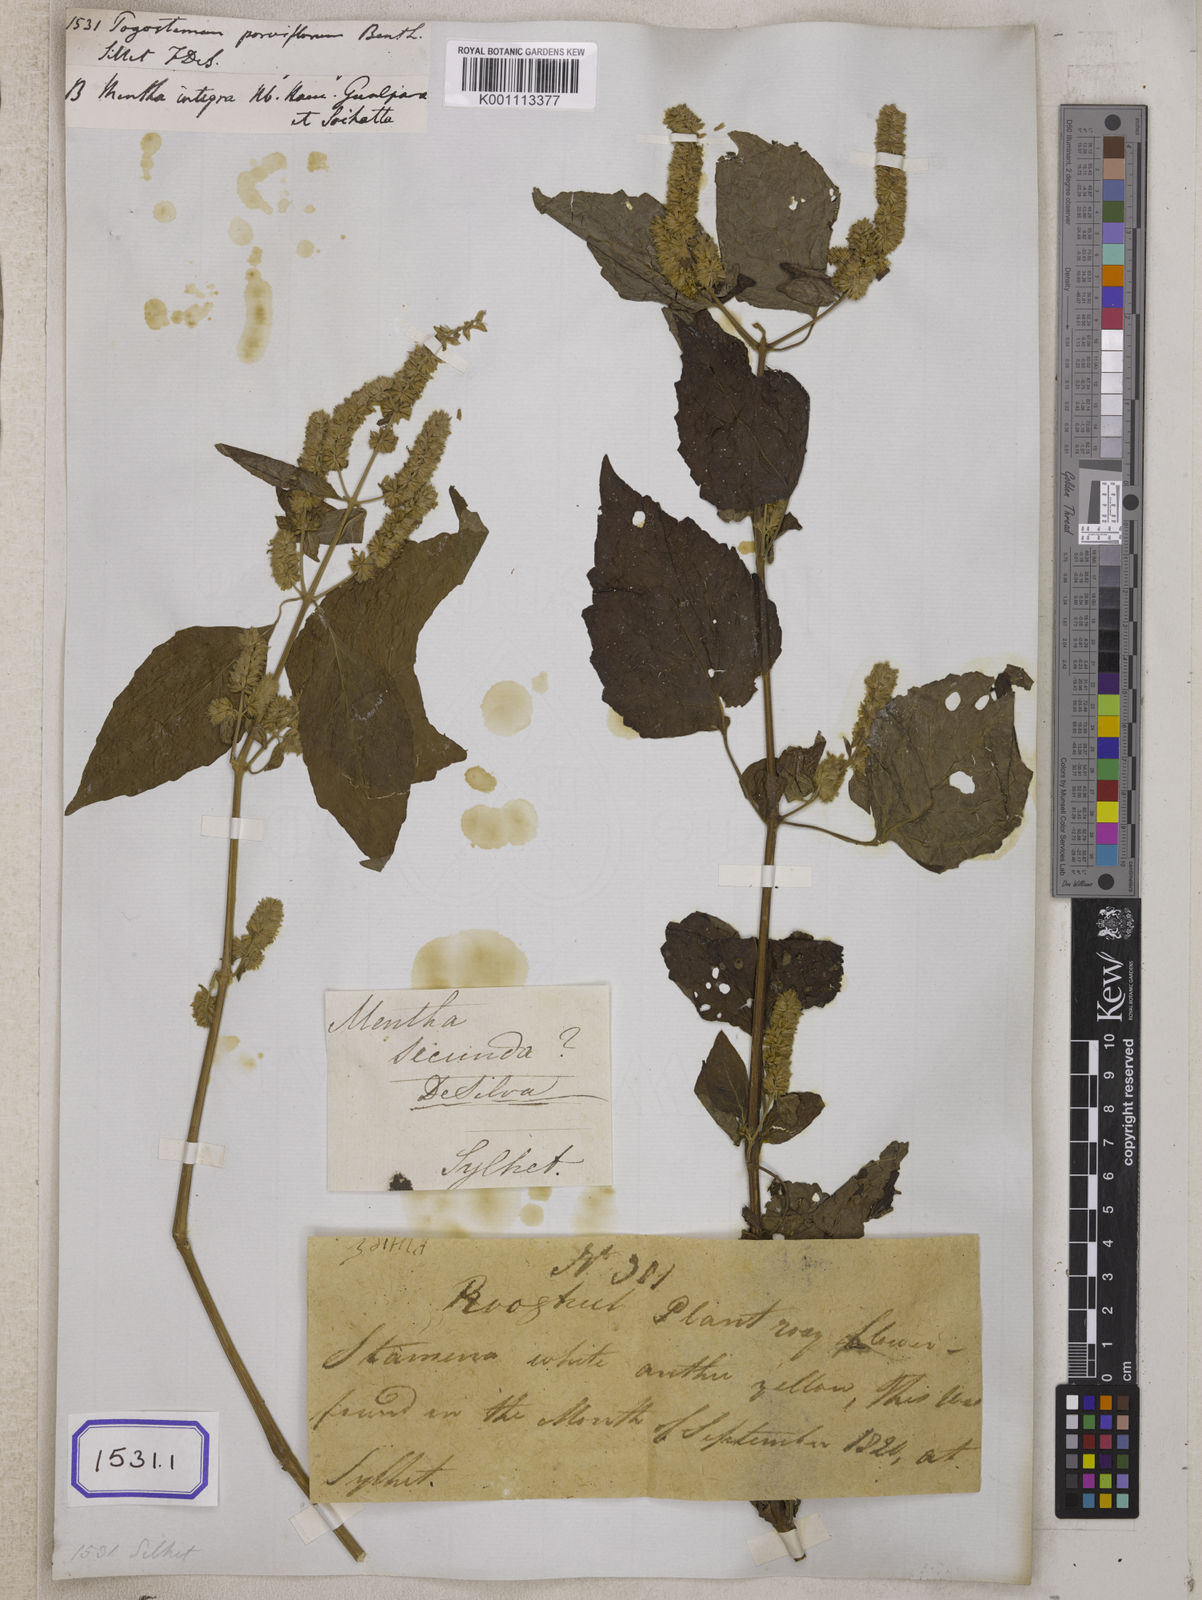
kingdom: Plantae
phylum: Tracheophyta
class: Magnoliopsida
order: Lamiales
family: Lamiaceae
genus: Pogostemon
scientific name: Pogostemon parviflorus
